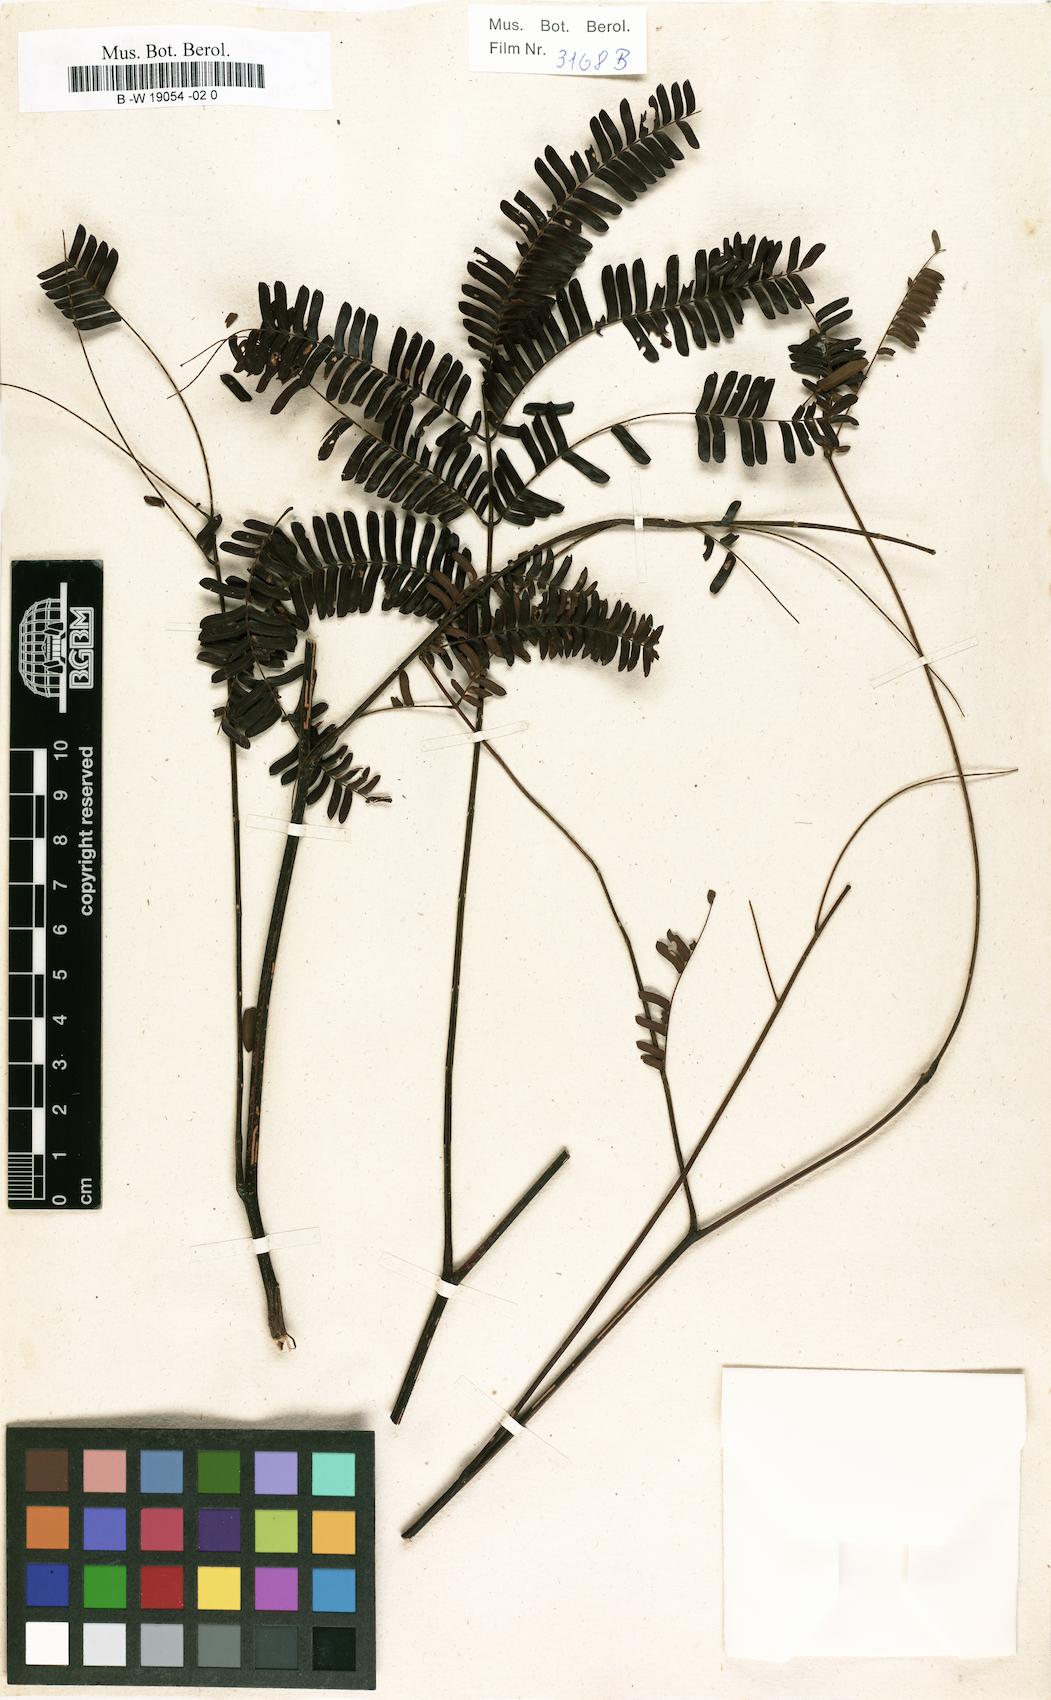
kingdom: Plantae
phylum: Tracheophyta
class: Magnoliopsida
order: Fabales
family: Fabaceae
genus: Parkia
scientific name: Parkia filicina
